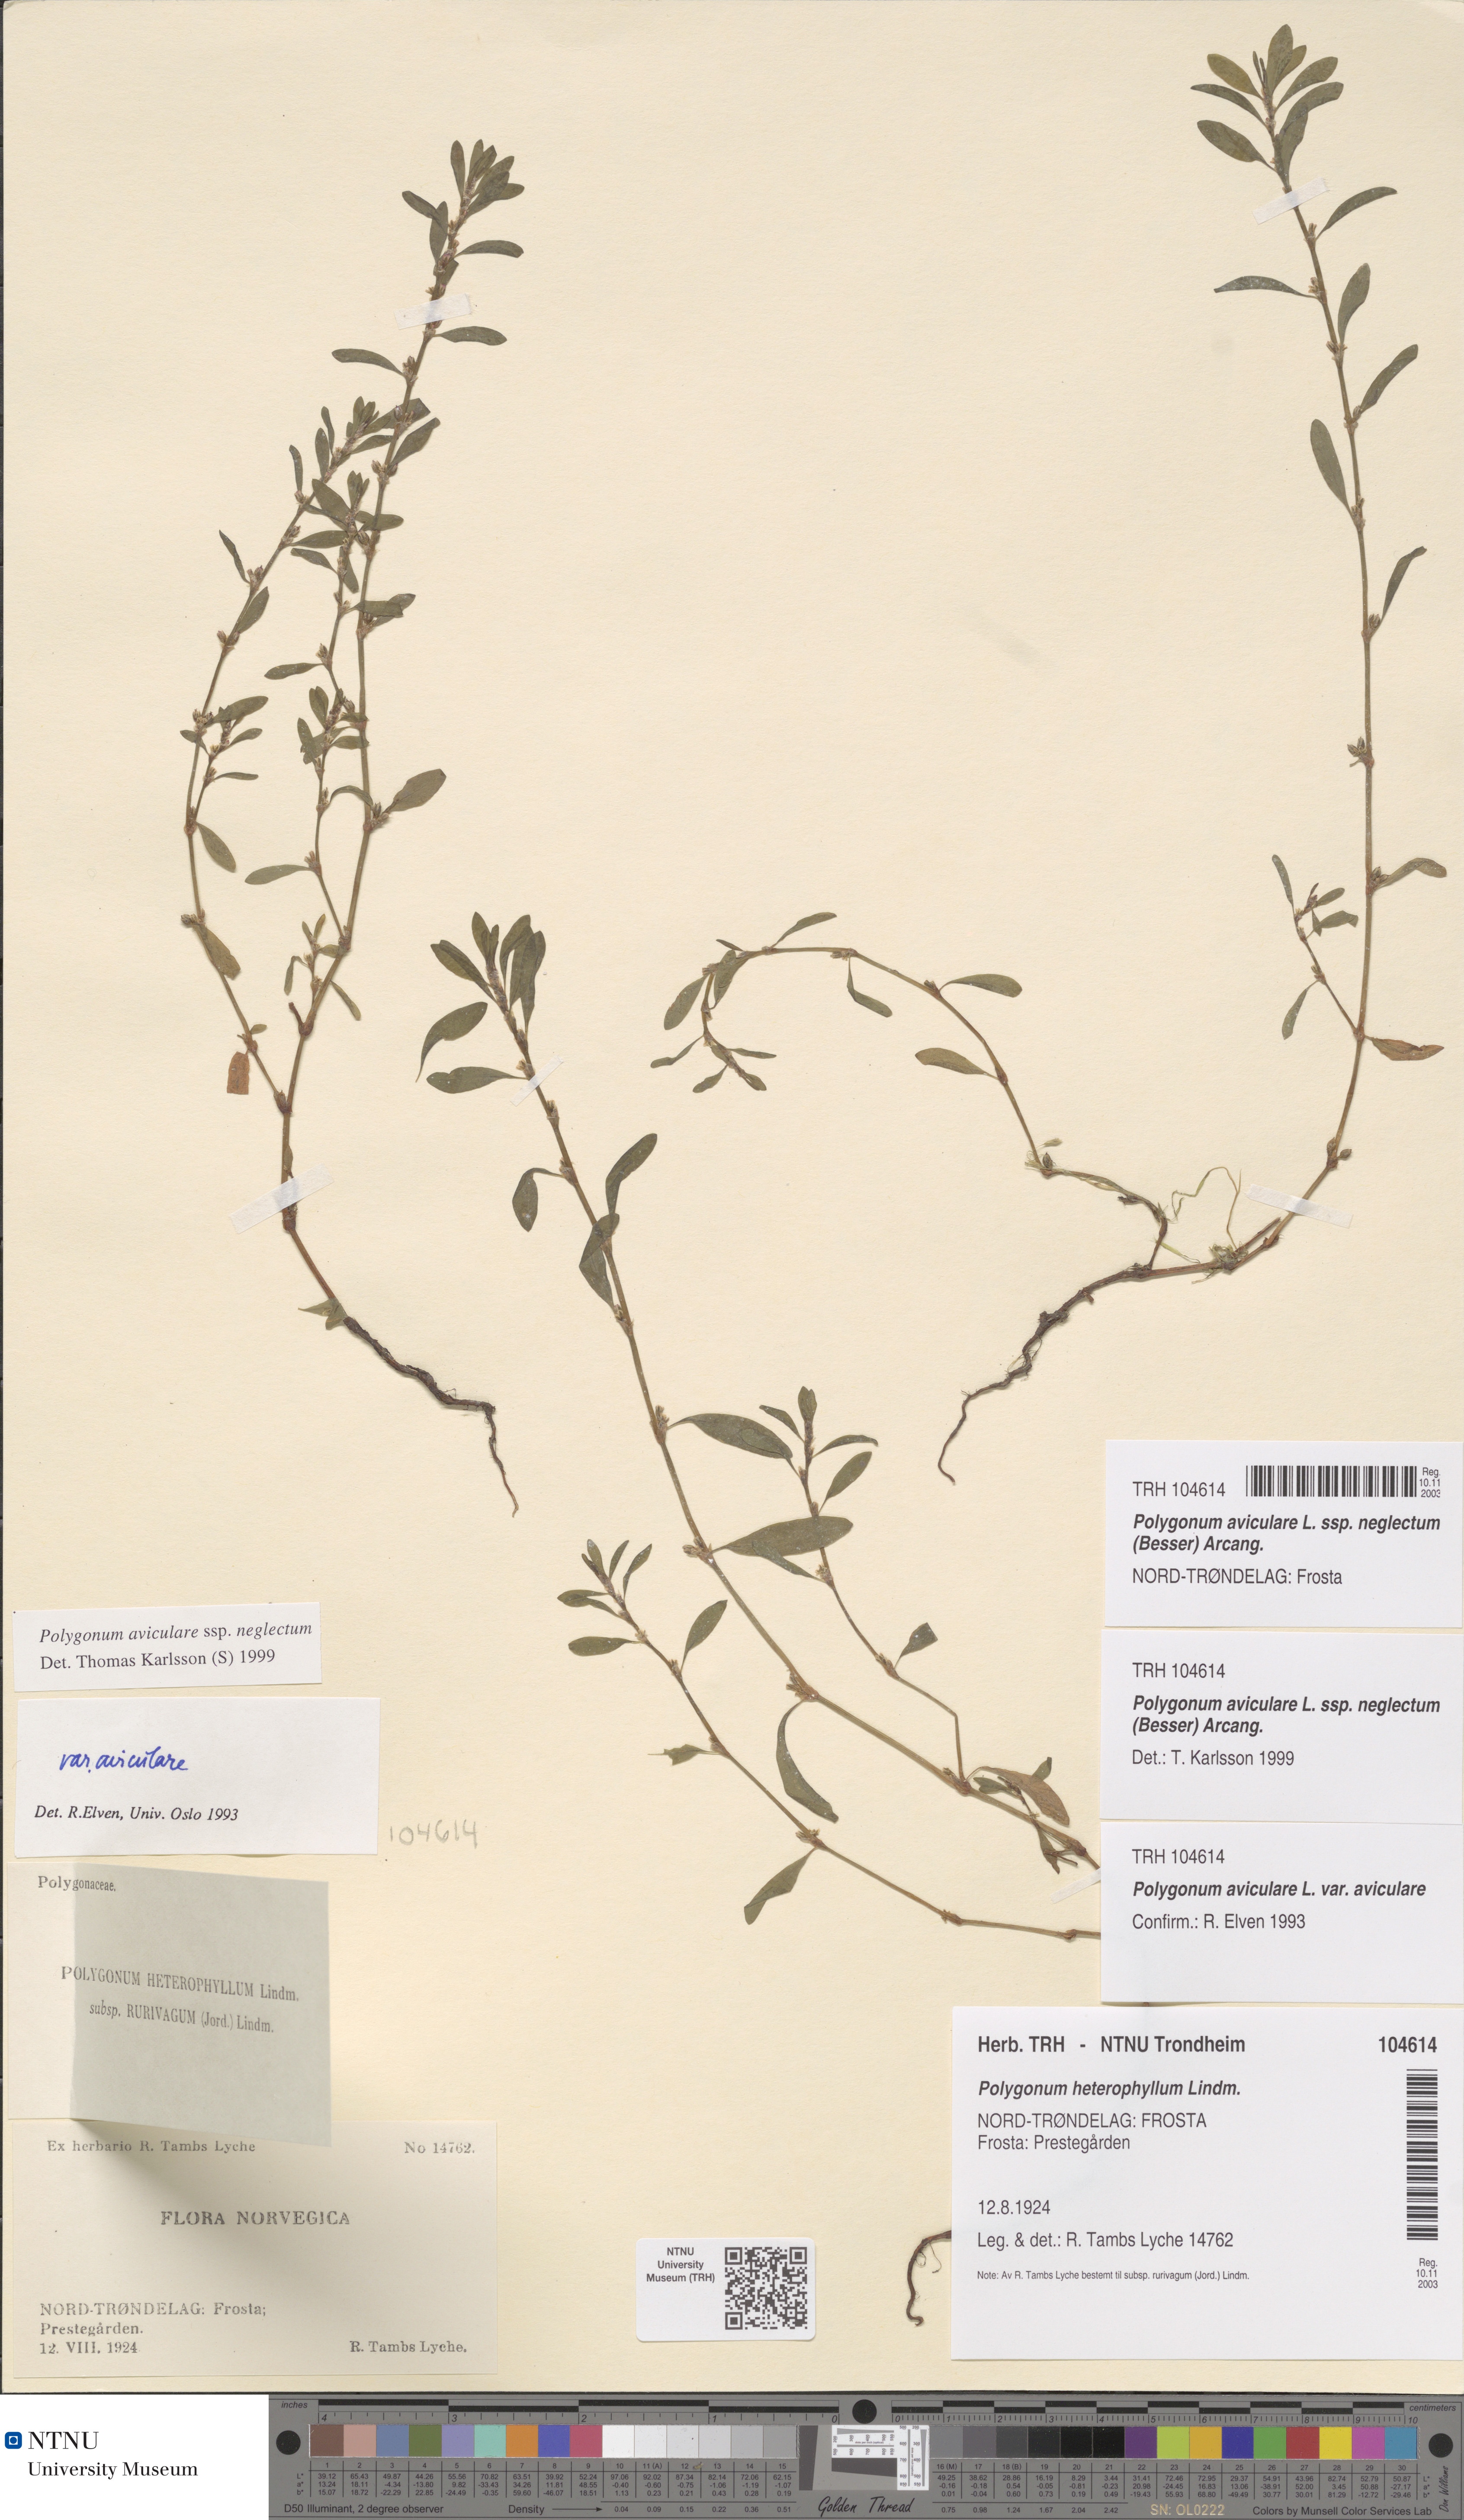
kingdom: Plantae
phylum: Tracheophyta
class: Magnoliopsida
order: Caryophyllales
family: Polygonaceae
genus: Polygonum
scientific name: Polygonum aviculare
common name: Prostrate knotweed
